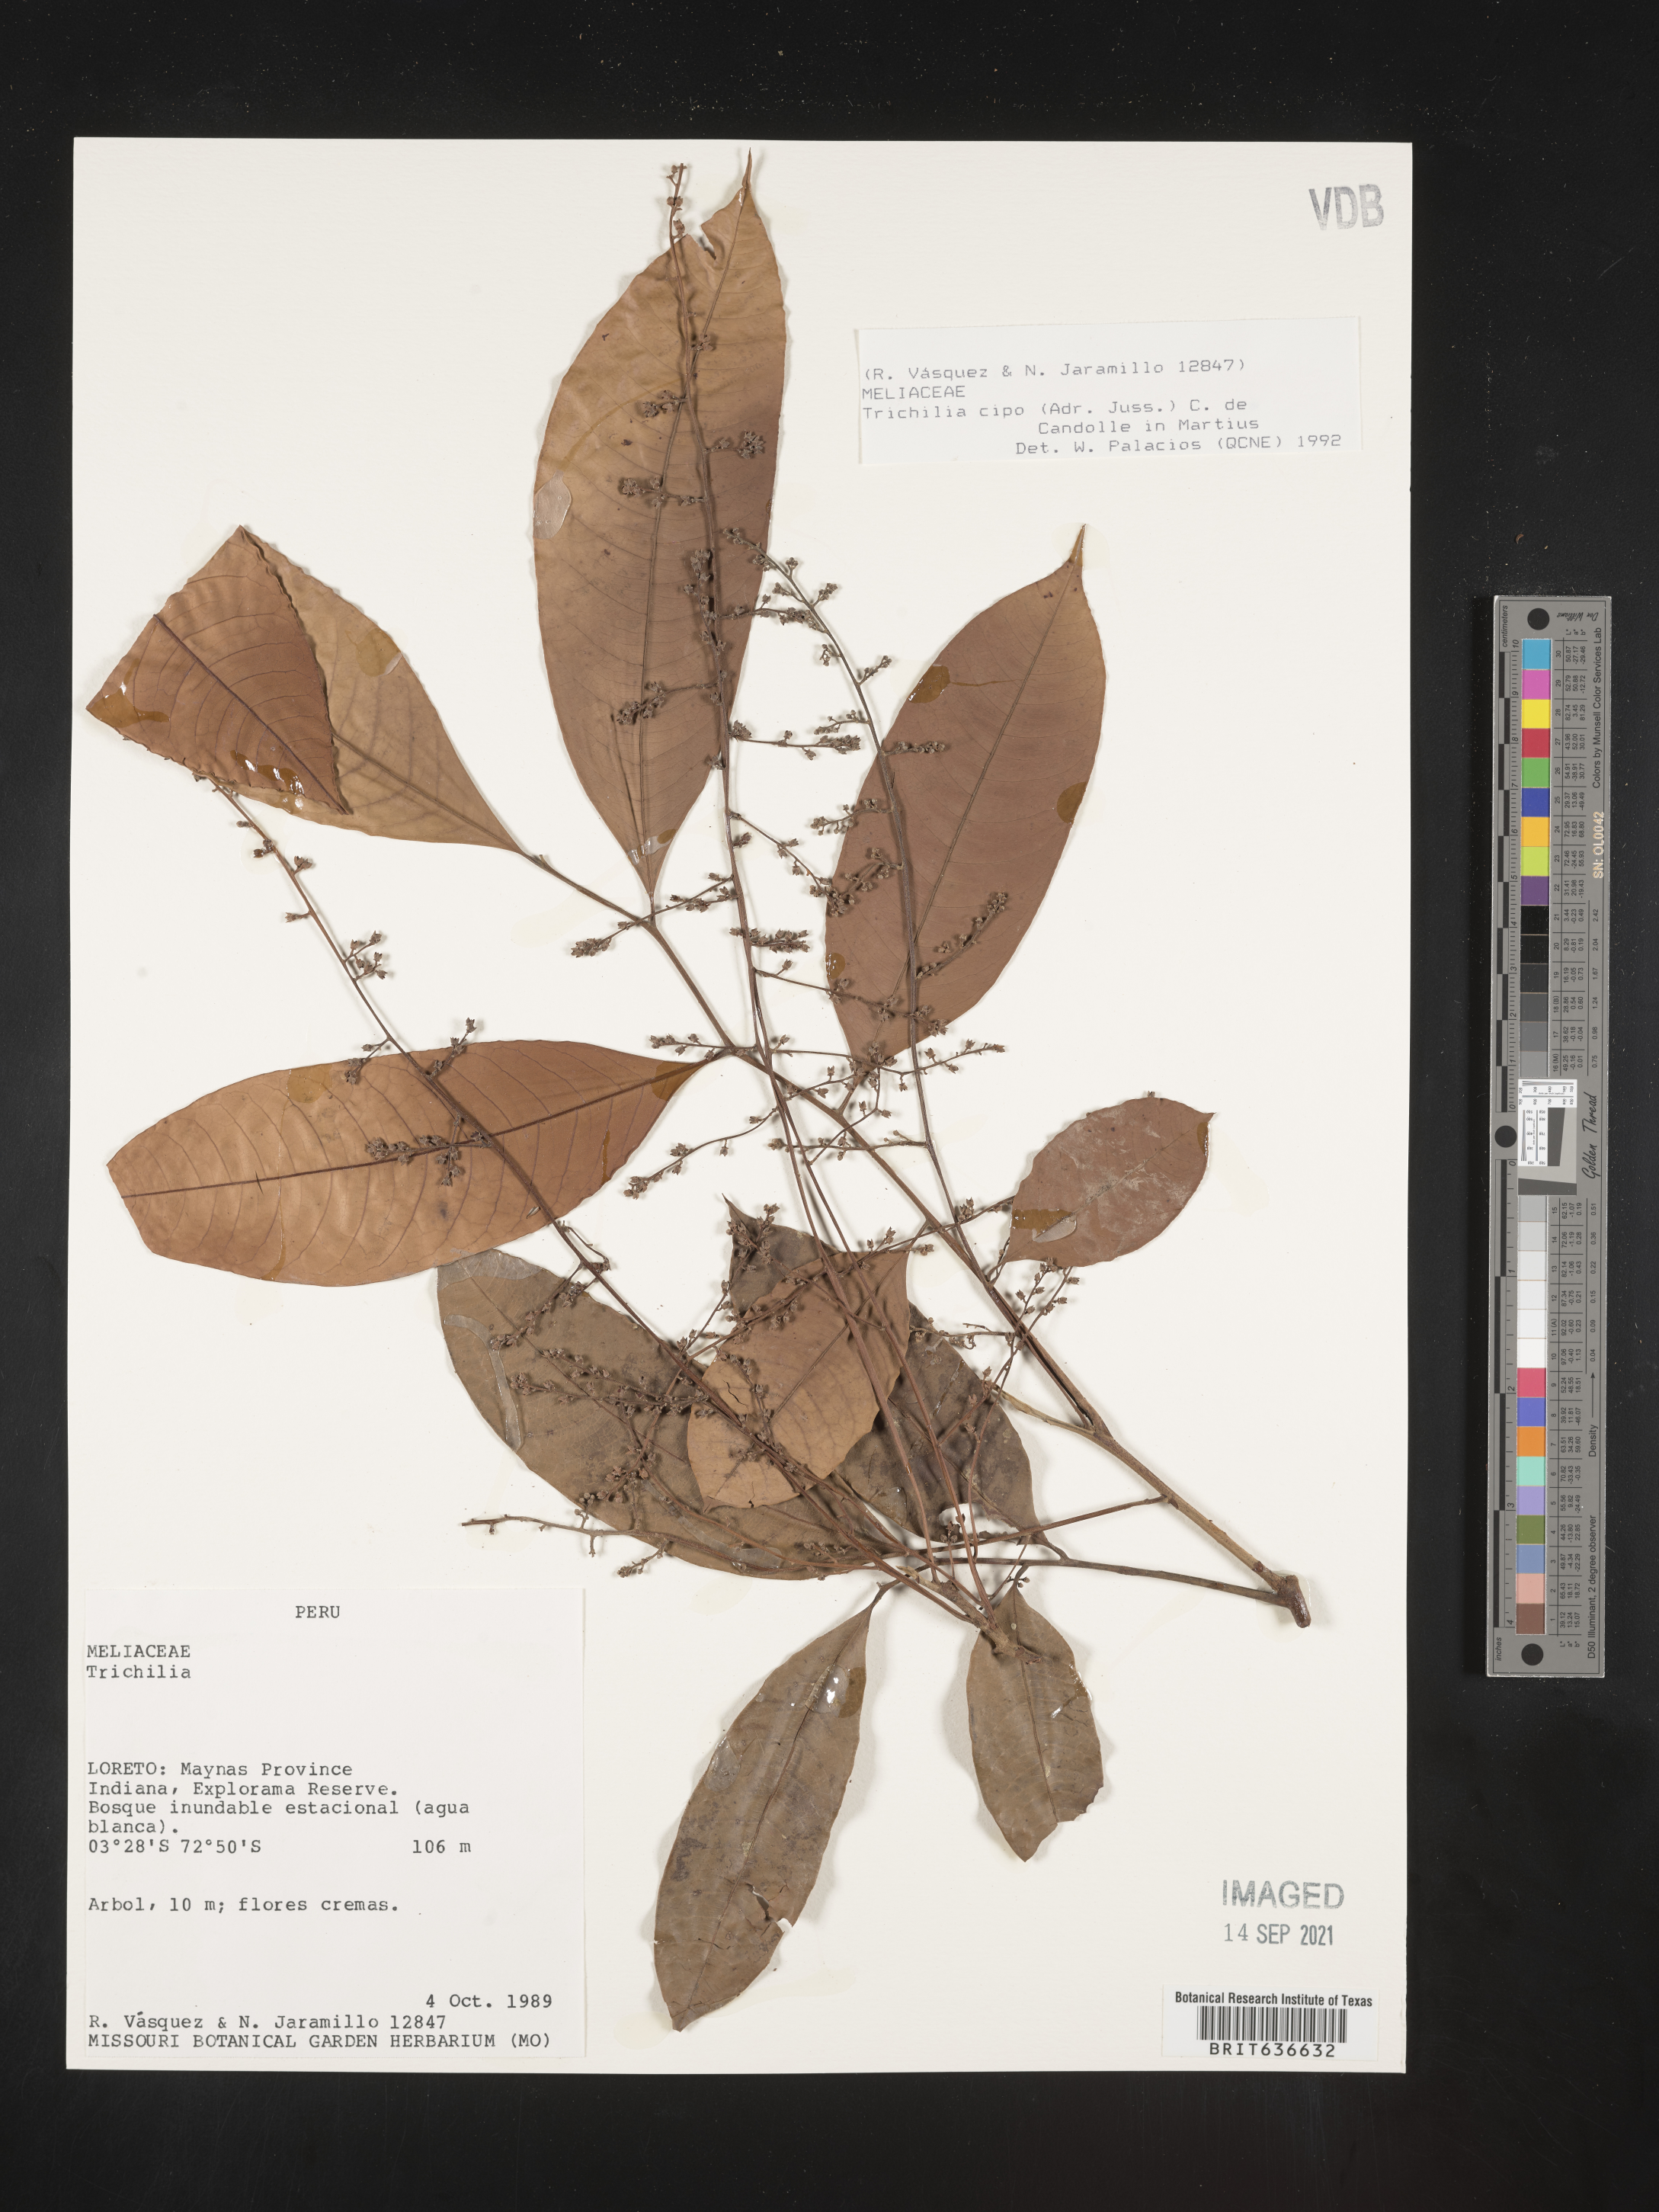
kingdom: Plantae
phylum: Tracheophyta
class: Magnoliopsida
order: Sapindales
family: Meliaceae
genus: Trichilia
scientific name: Trichilia
